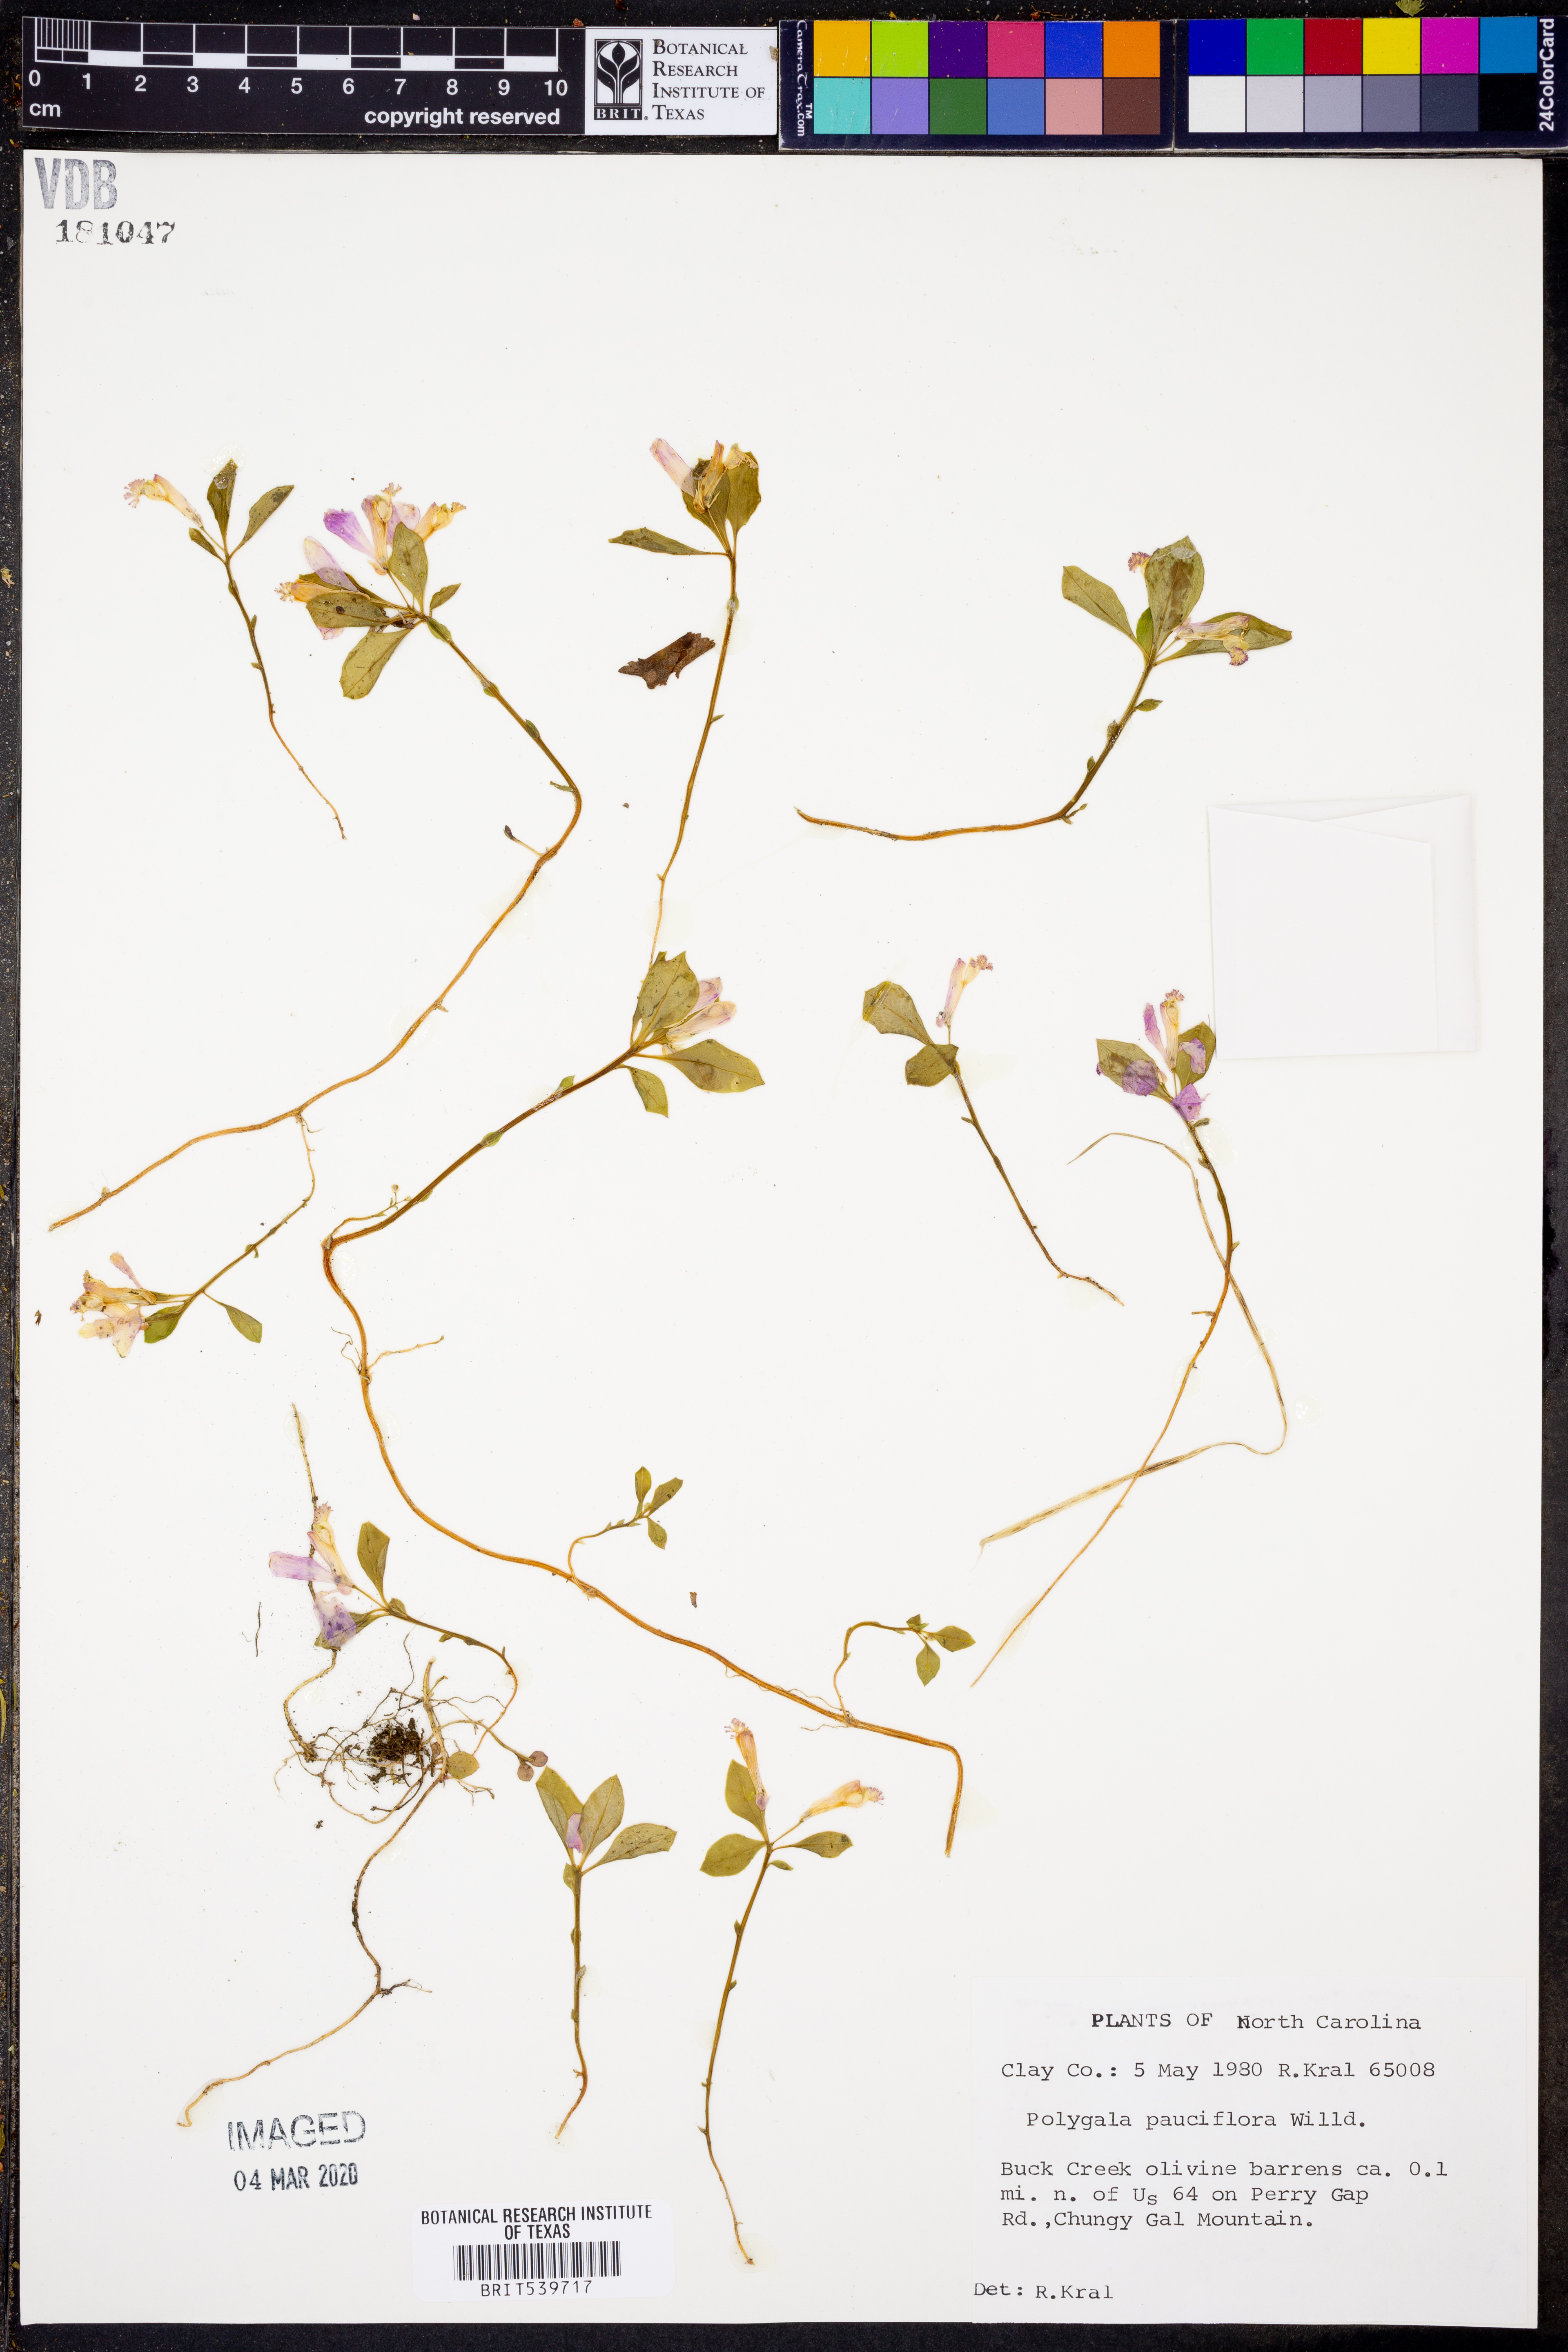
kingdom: Plantae
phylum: Tracheophyta
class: Magnoliopsida
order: Fabales
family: Polygalaceae
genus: Muraltia
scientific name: Muraltia pauciflora
